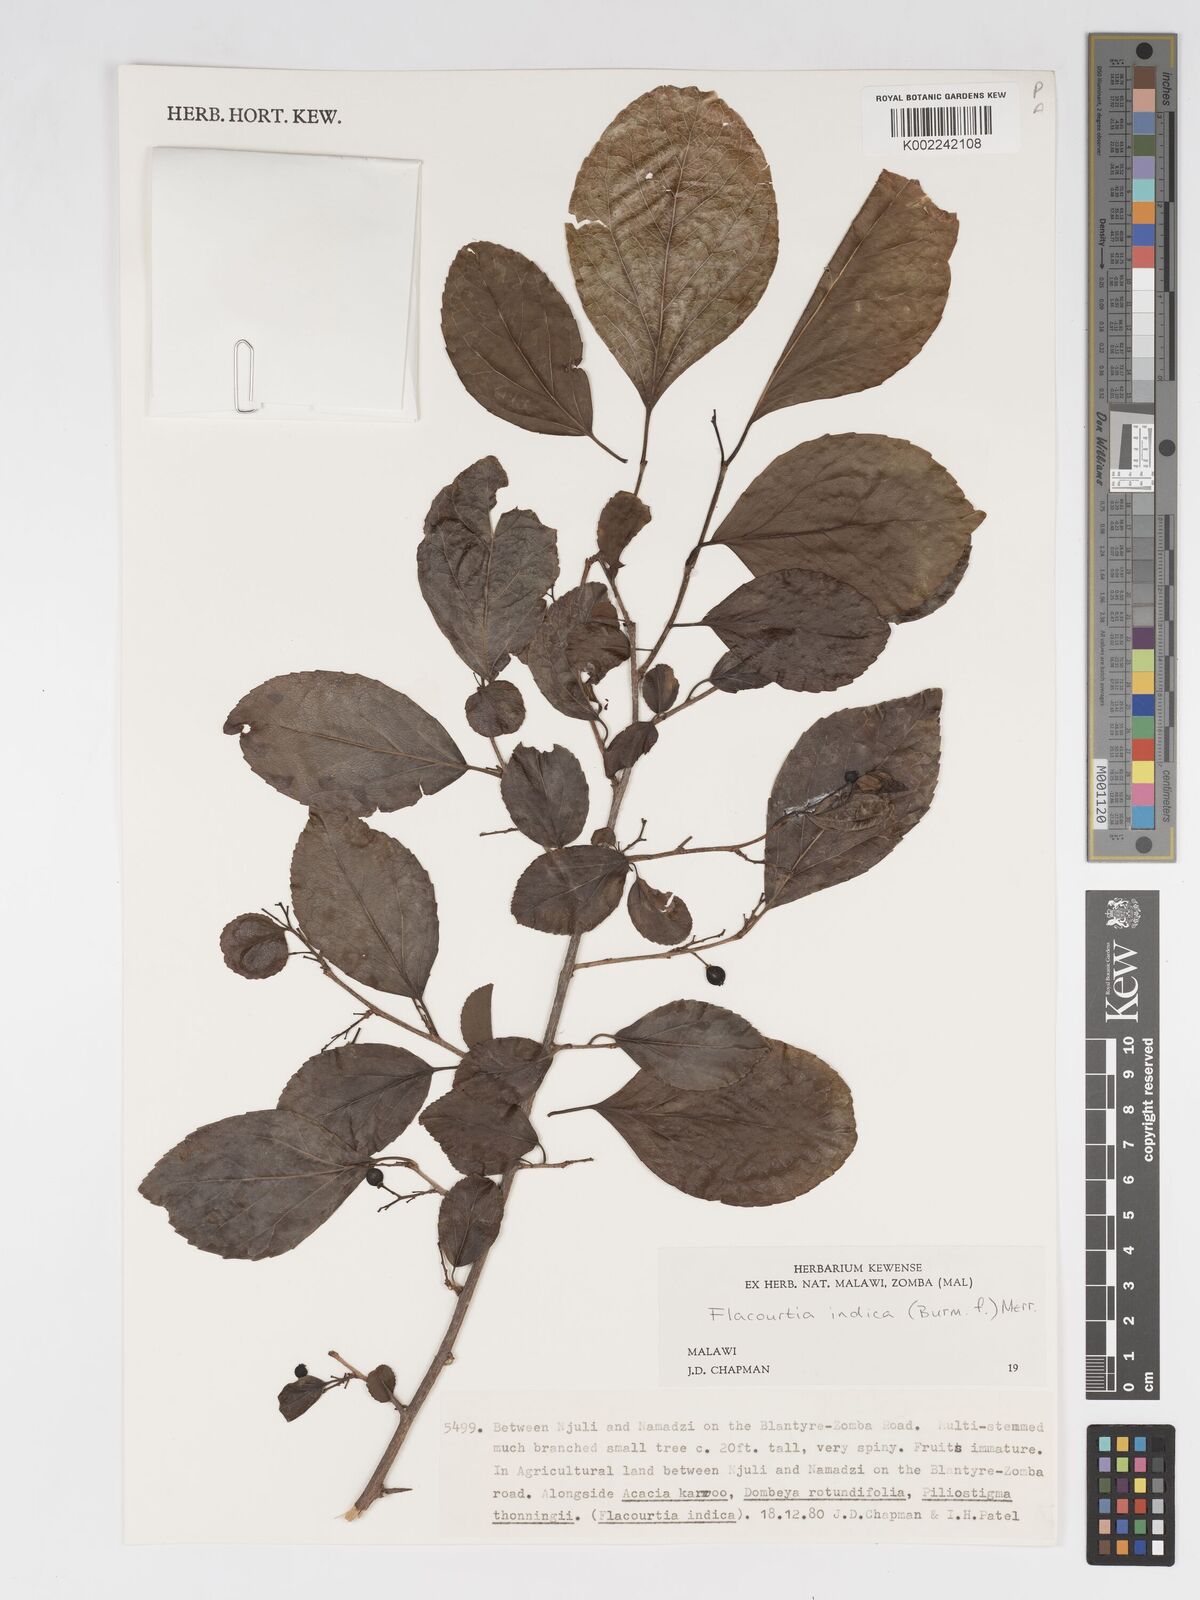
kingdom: Plantae
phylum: Tracheophyta
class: Magnoliopsida
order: Malpighiales
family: Salicaceae
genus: Flacourtia
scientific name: Flacourtia indica
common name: Governor's plum
